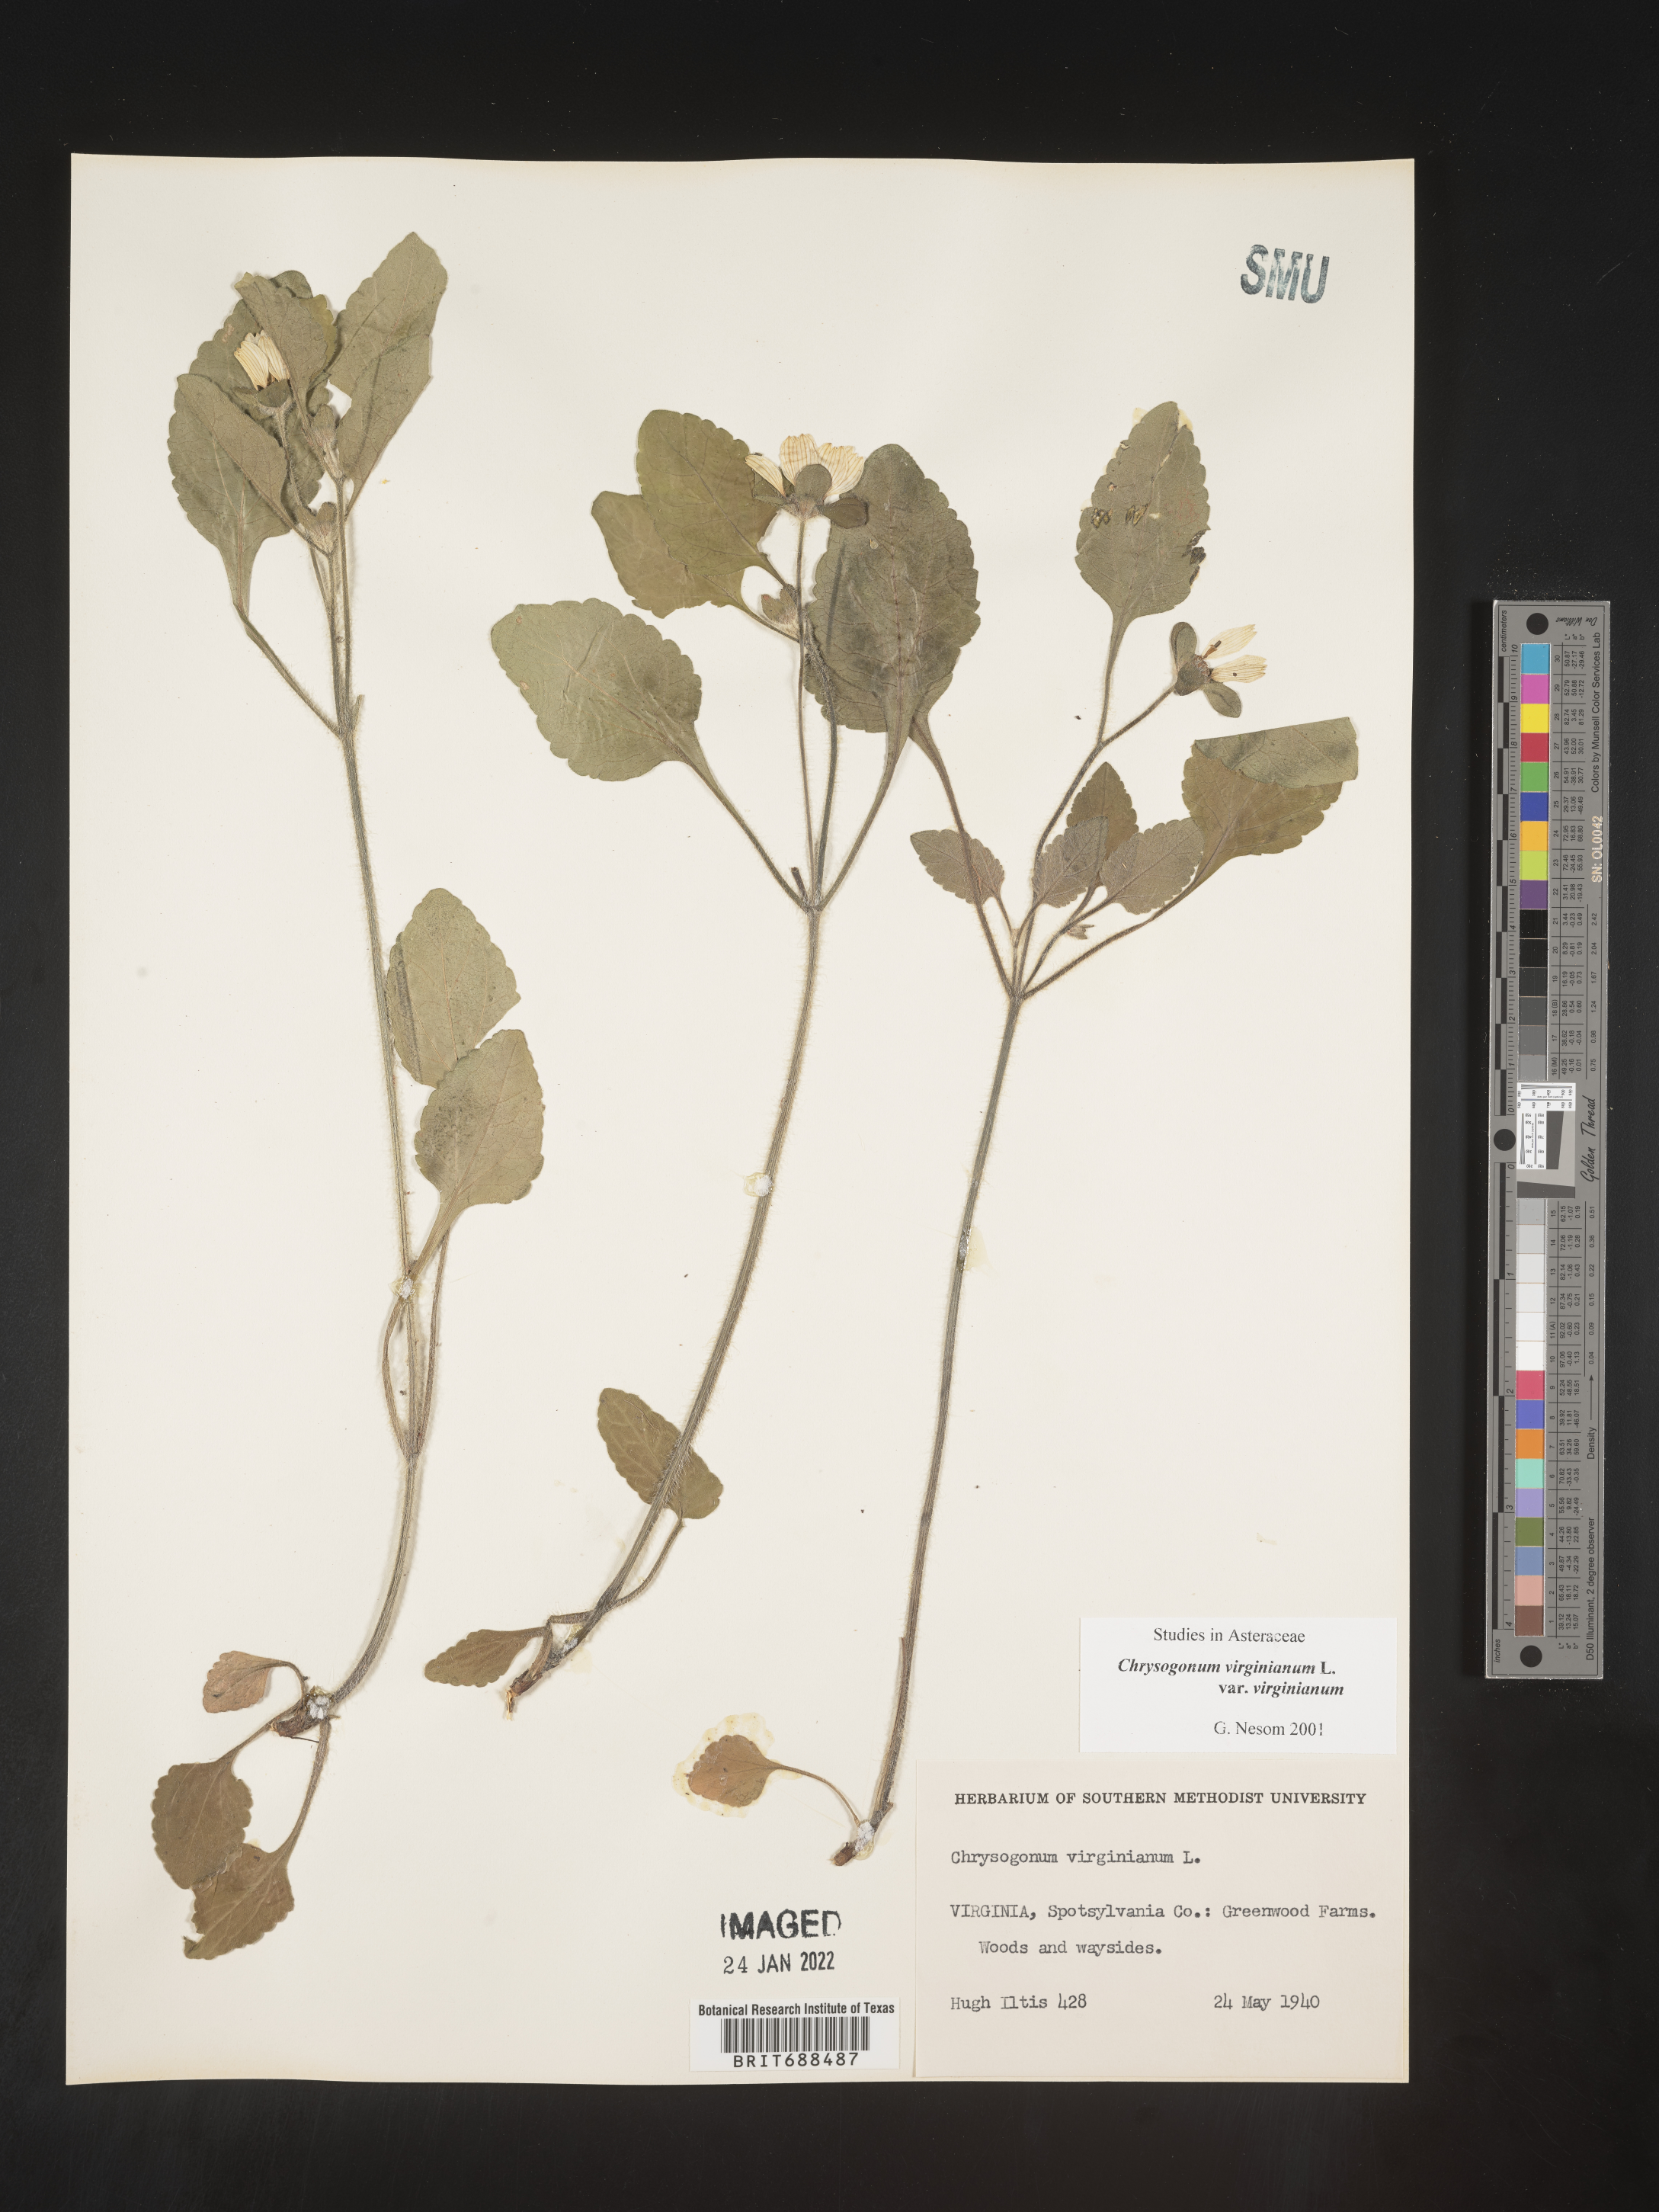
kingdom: Plantae
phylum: Tracheophyta
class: Magnoliopsida
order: Asterales
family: Asteraceae
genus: Chrysogonum
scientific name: Chrysogonum virginianum
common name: Golden-knee
